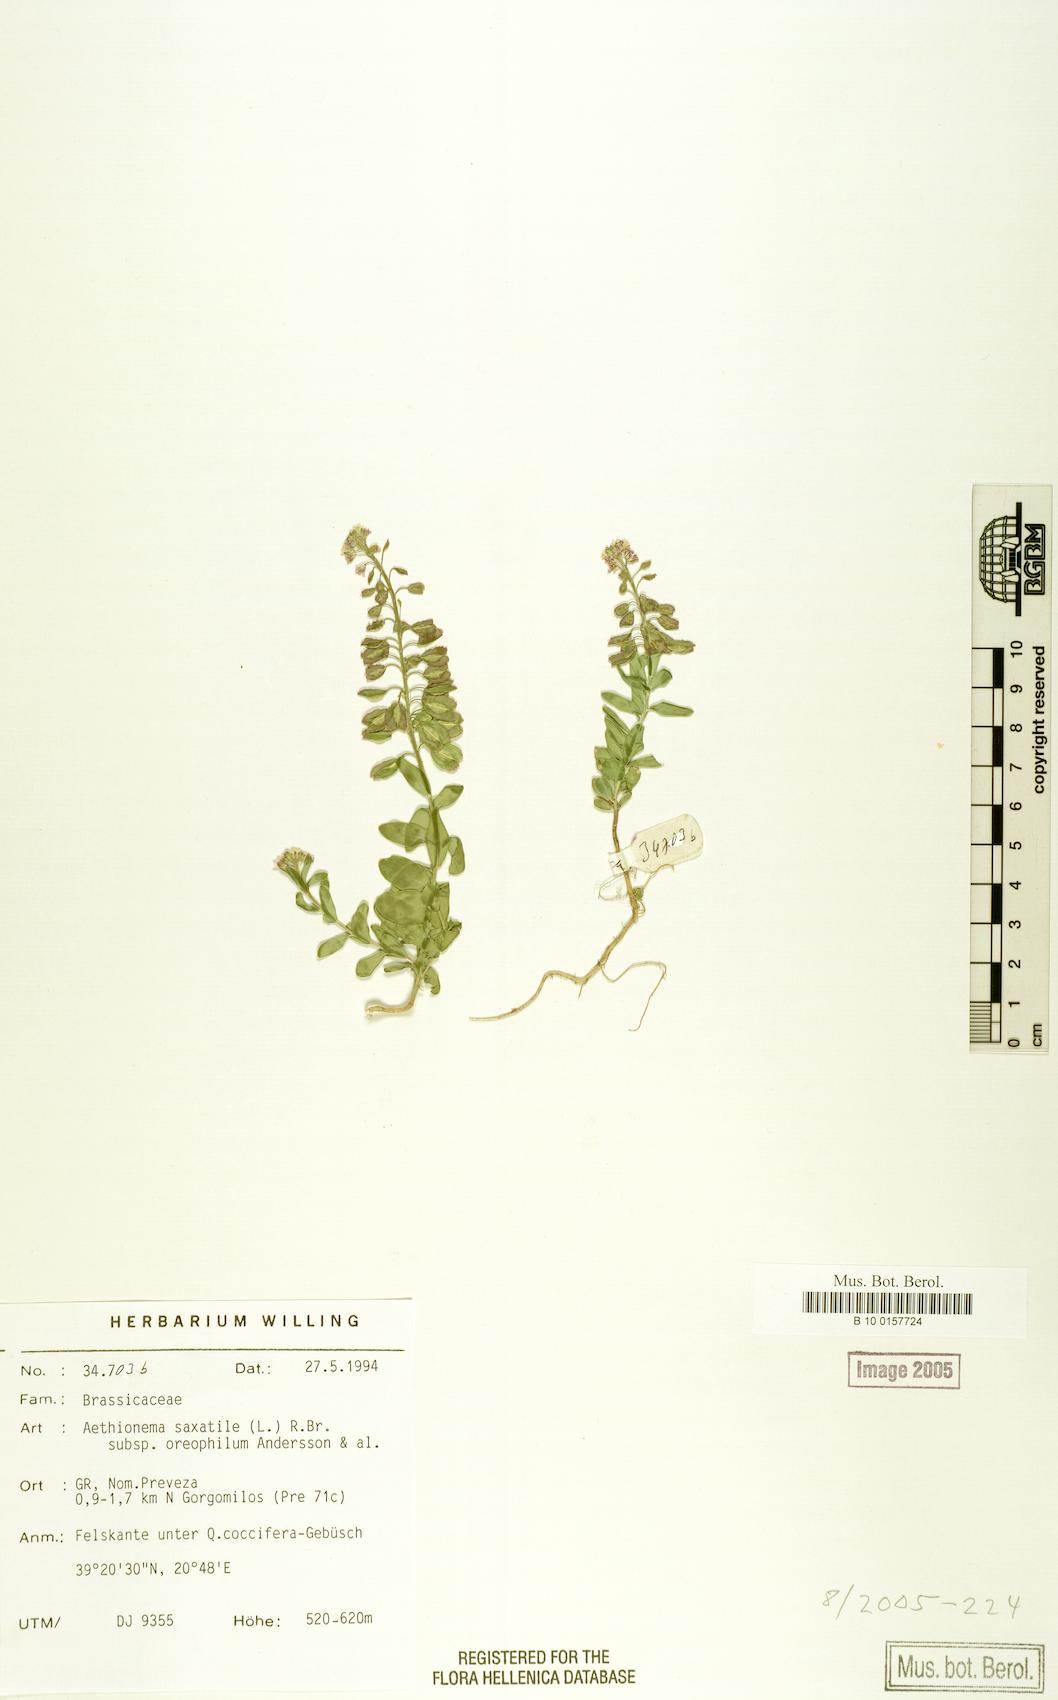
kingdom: Plantae
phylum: Tracheophyta
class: Magnoliopsida
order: Brassicales
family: Brassicaceae
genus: Aethionema
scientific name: Aethionema saxatile
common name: Burnt candytuft
